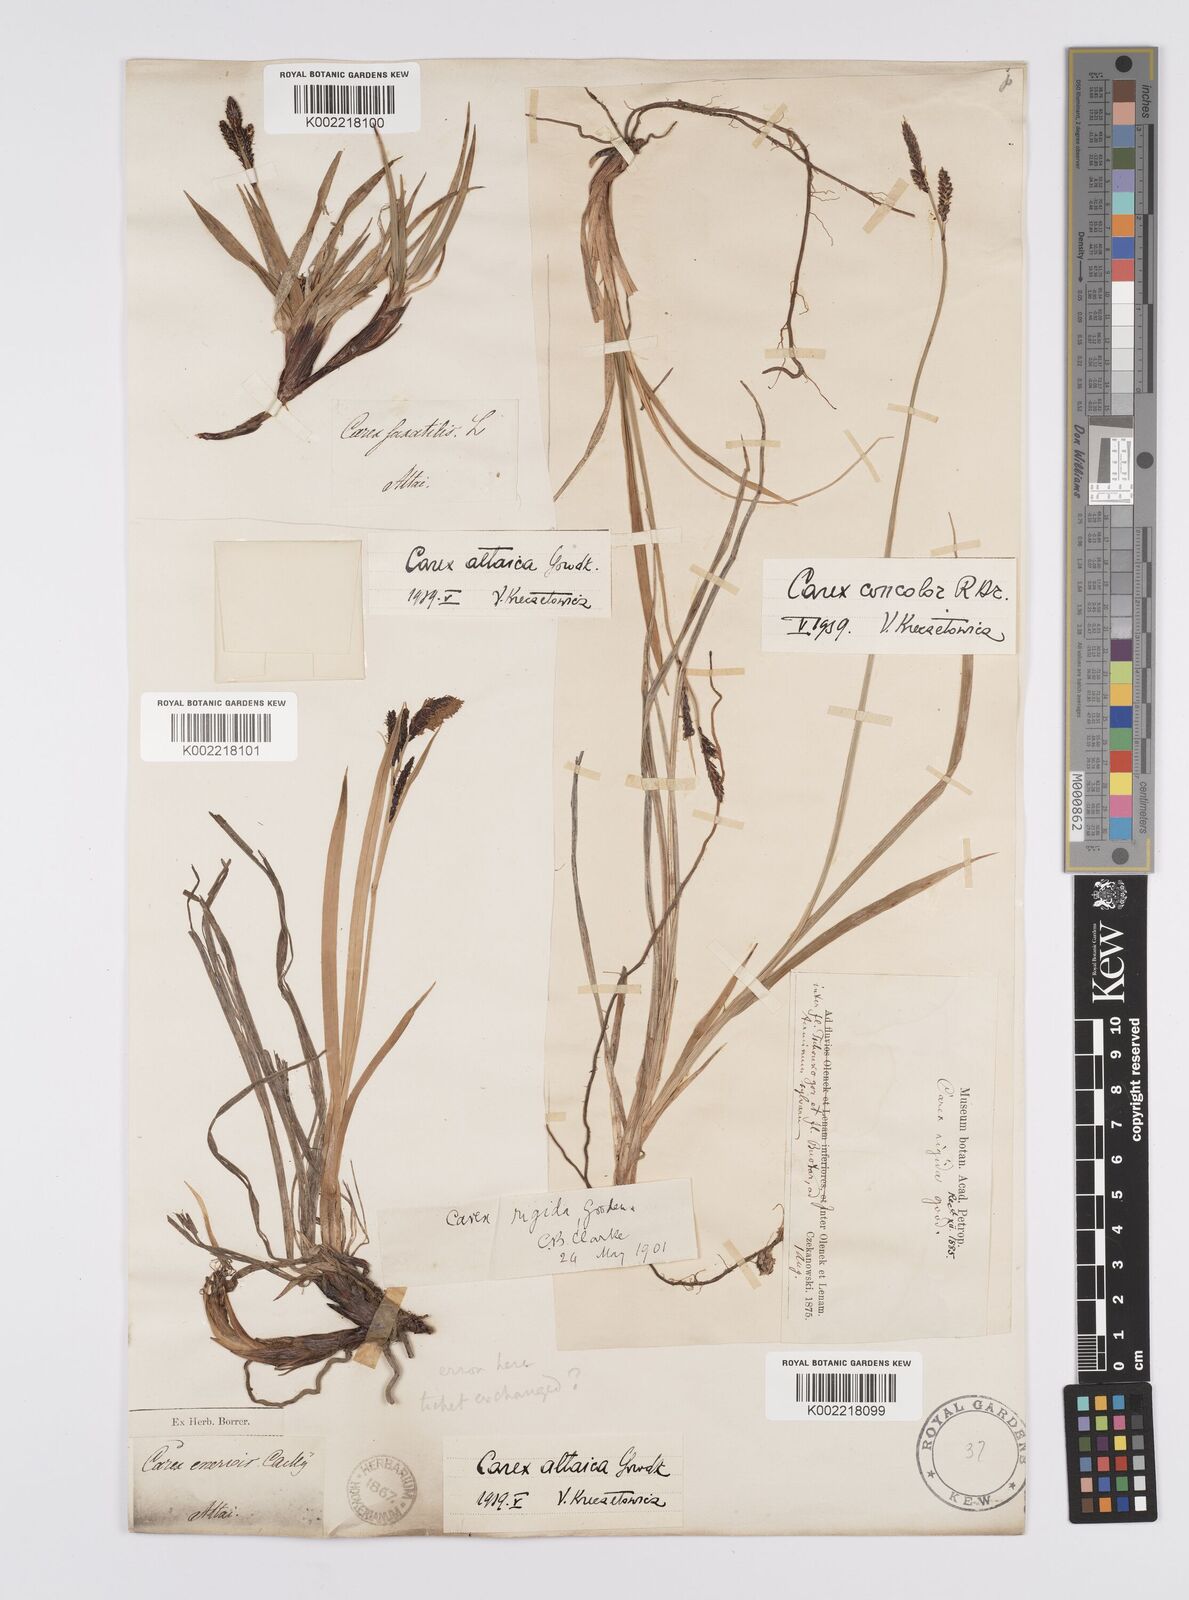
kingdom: Plantae
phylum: Tracheophyta
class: Liliopsida
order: Poales
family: Cyperaceae
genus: Carex
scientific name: Carex altaica
